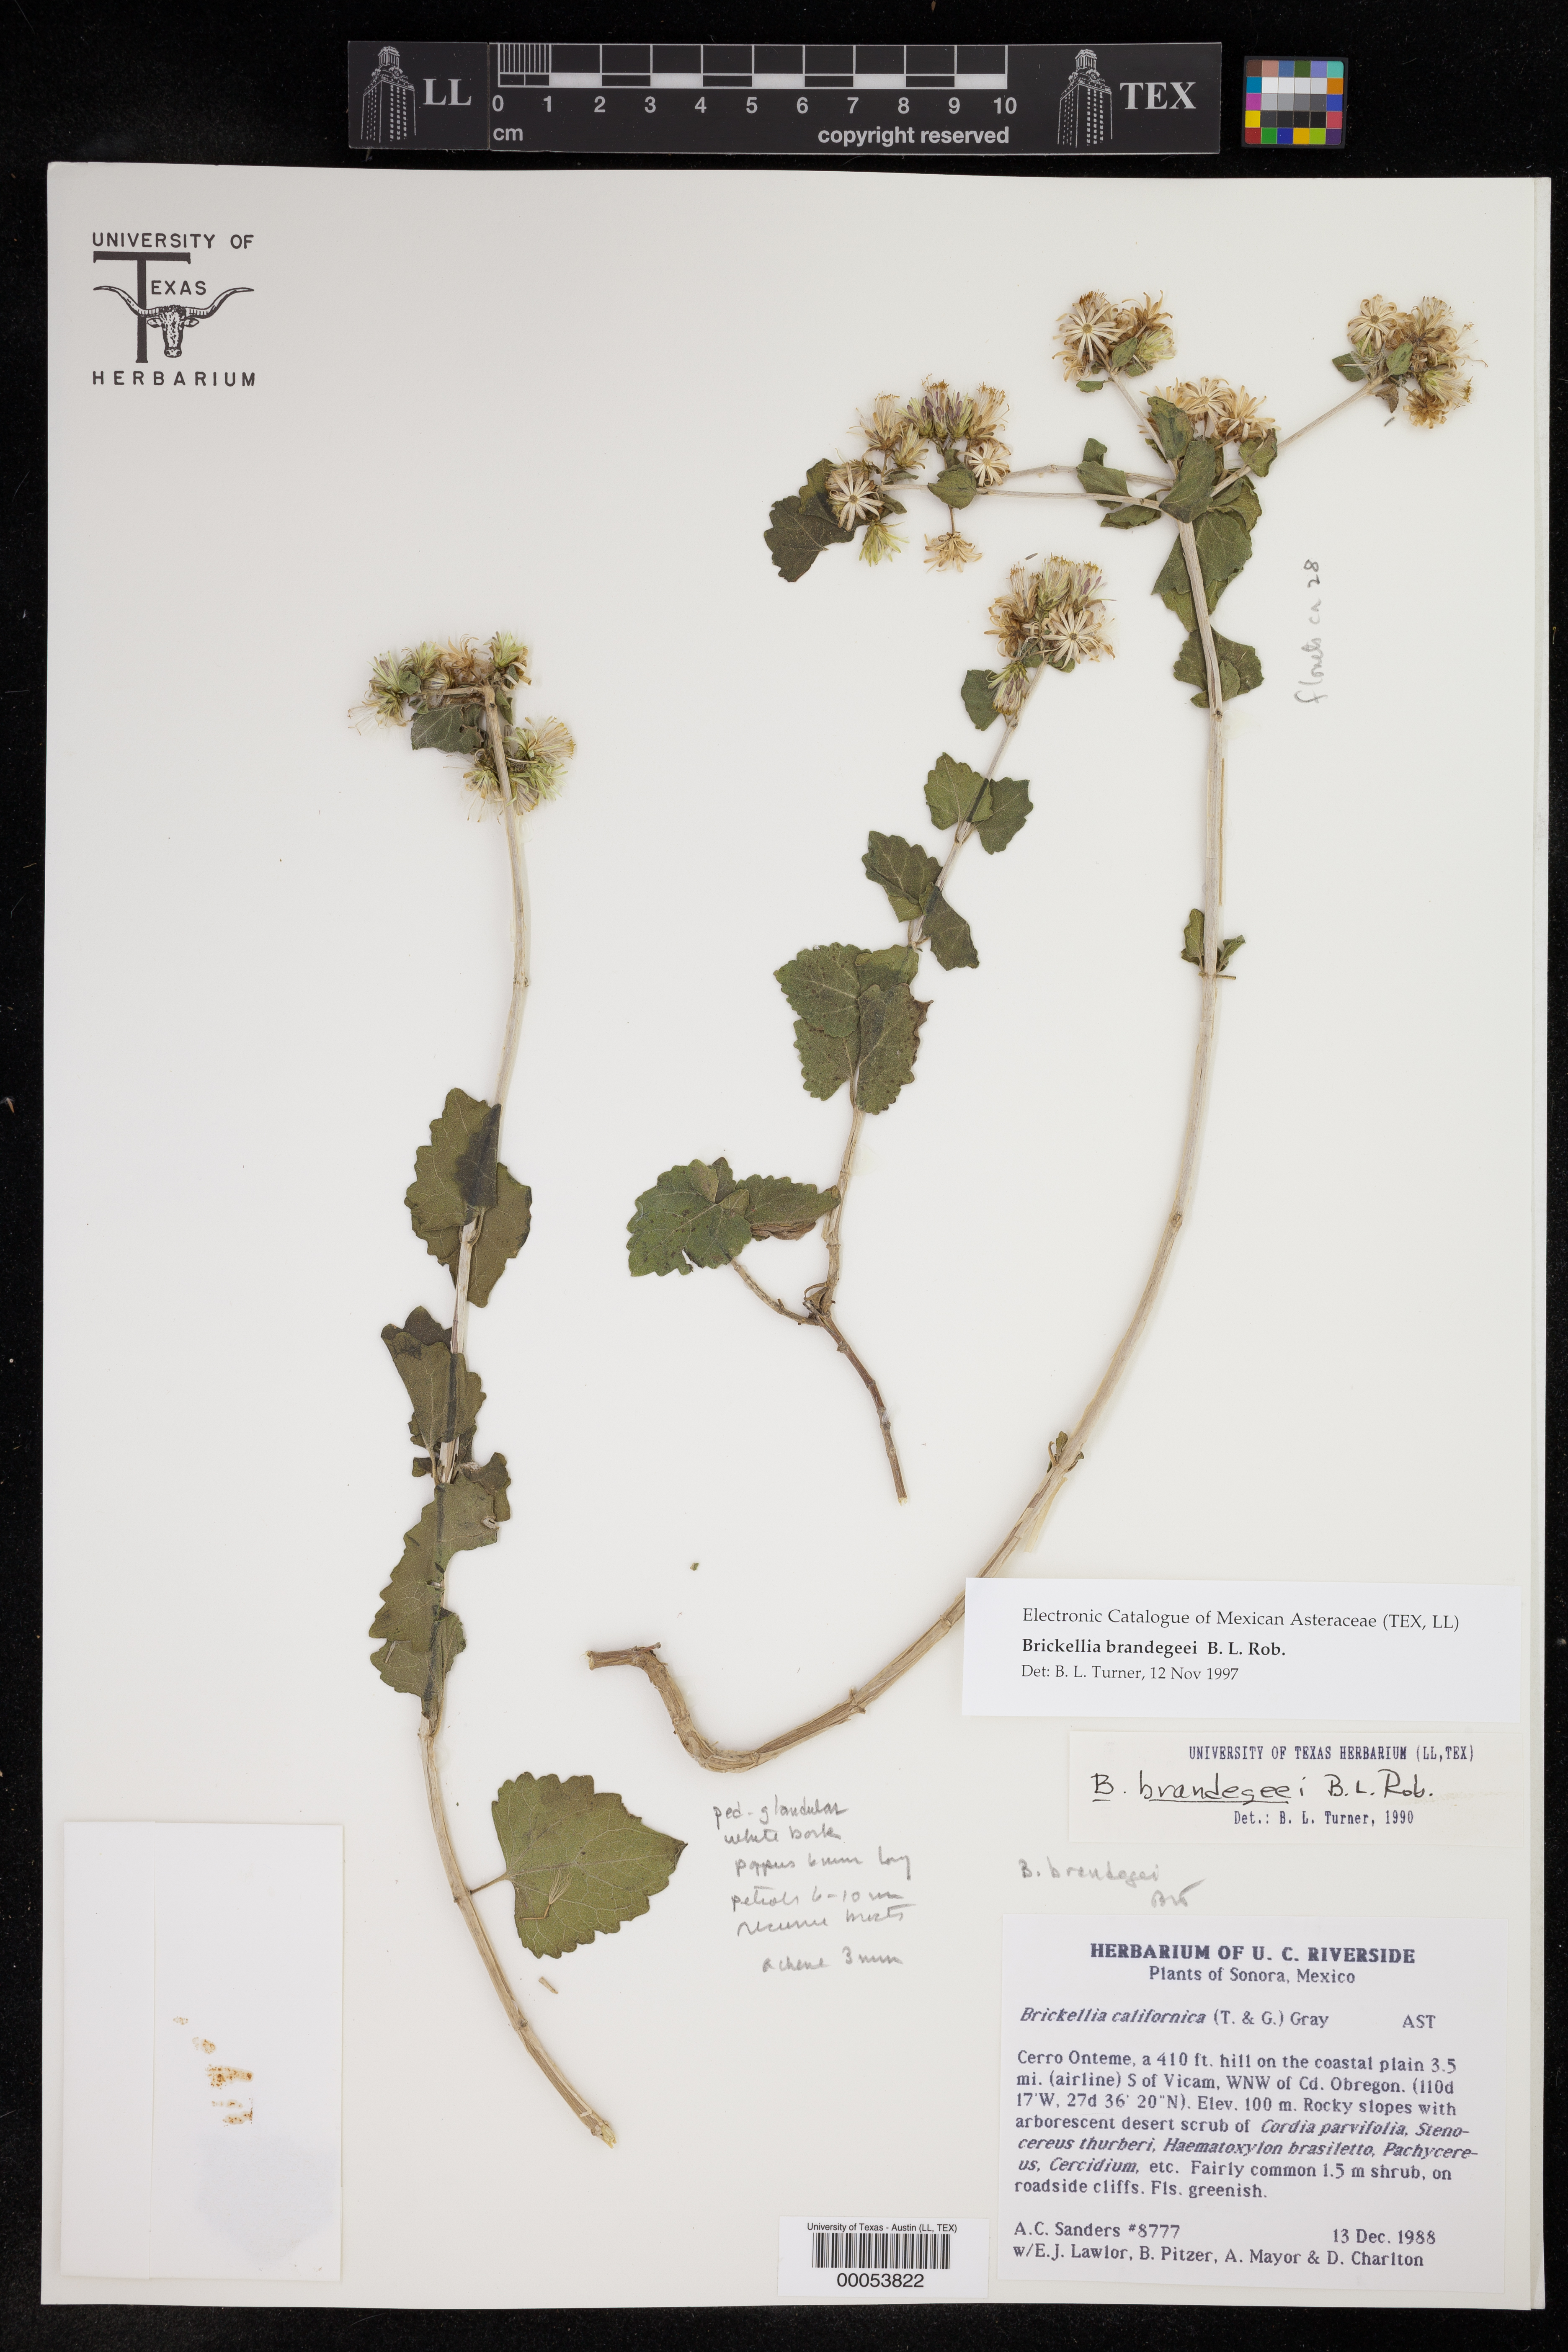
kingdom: Plantae
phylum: Tracheophyta
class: Magnoliopsida
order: Asterales
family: Asteraceae
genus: Brickellia
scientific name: Brickellia brandegeei
